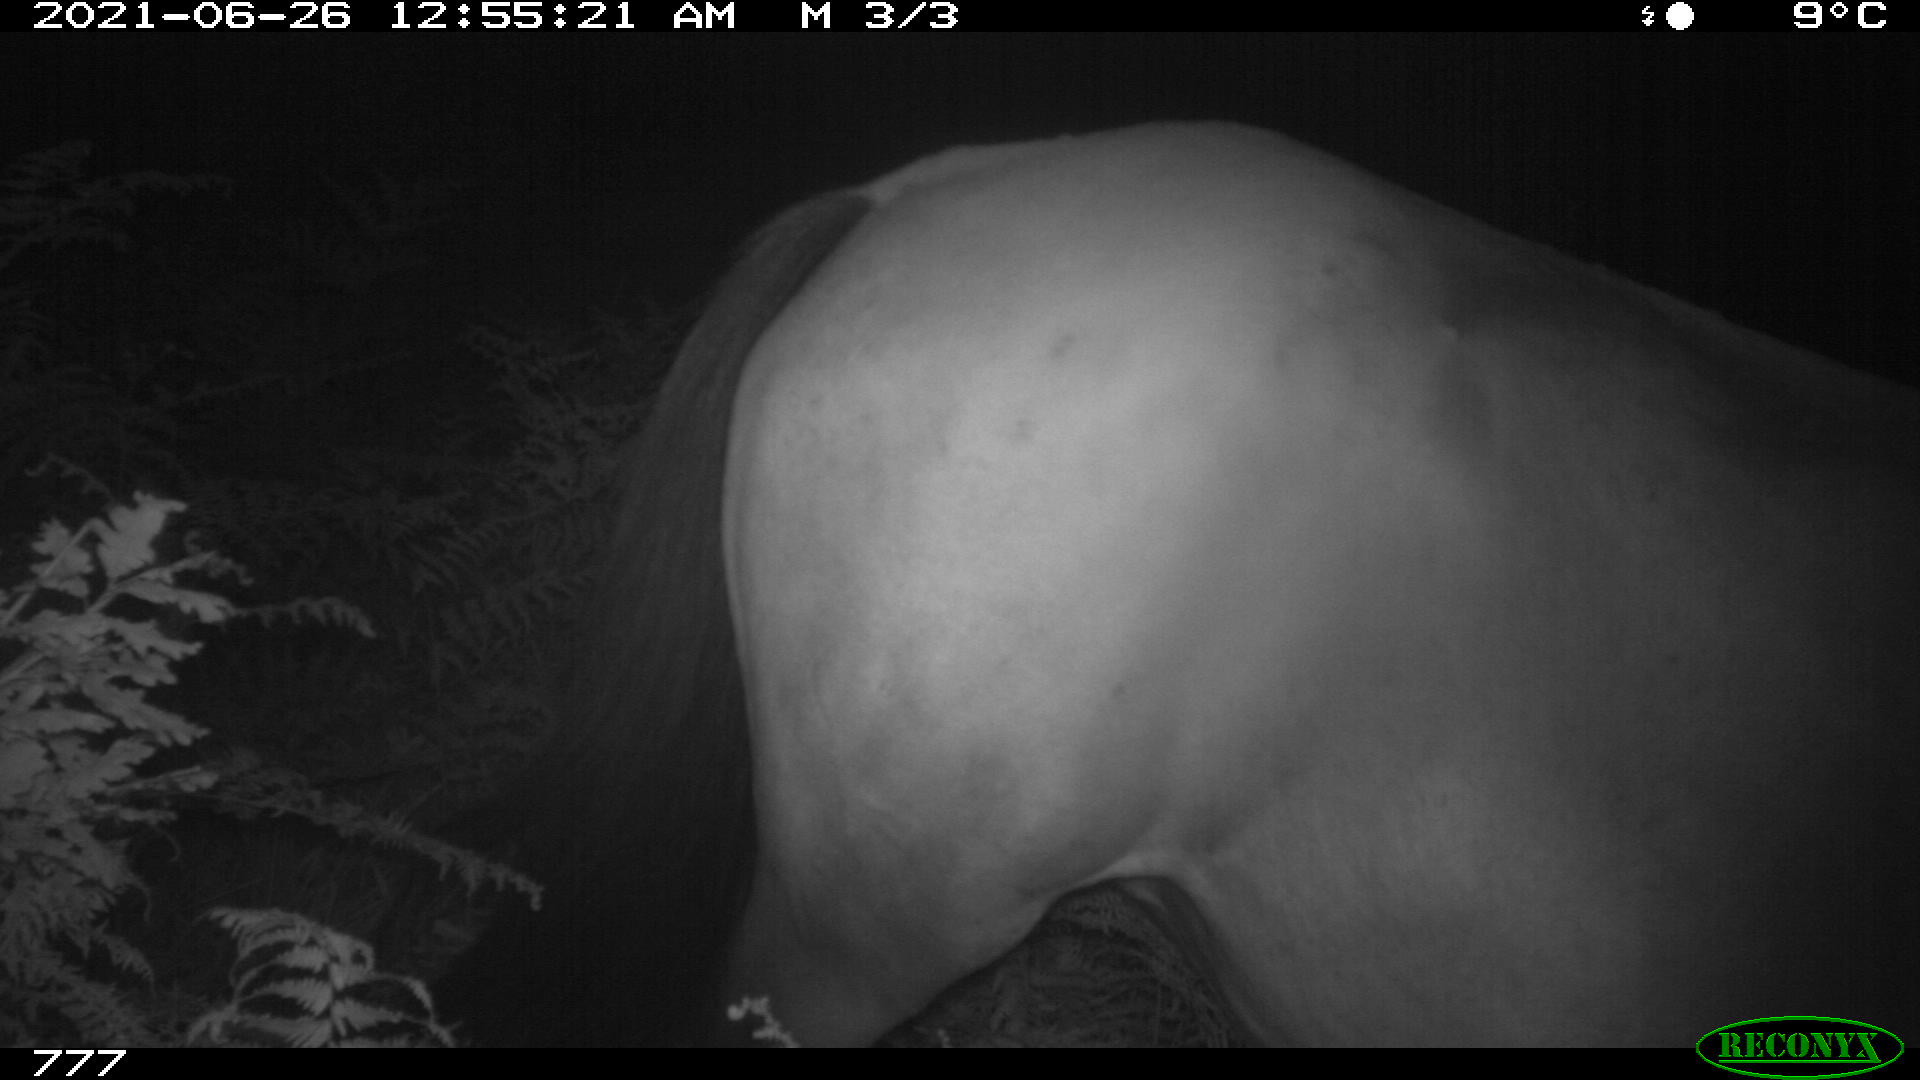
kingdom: Animalia
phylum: Chordata
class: Mammalia
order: Perissodactyla
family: Equidae
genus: Equus
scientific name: Equus caballus
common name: Horse
